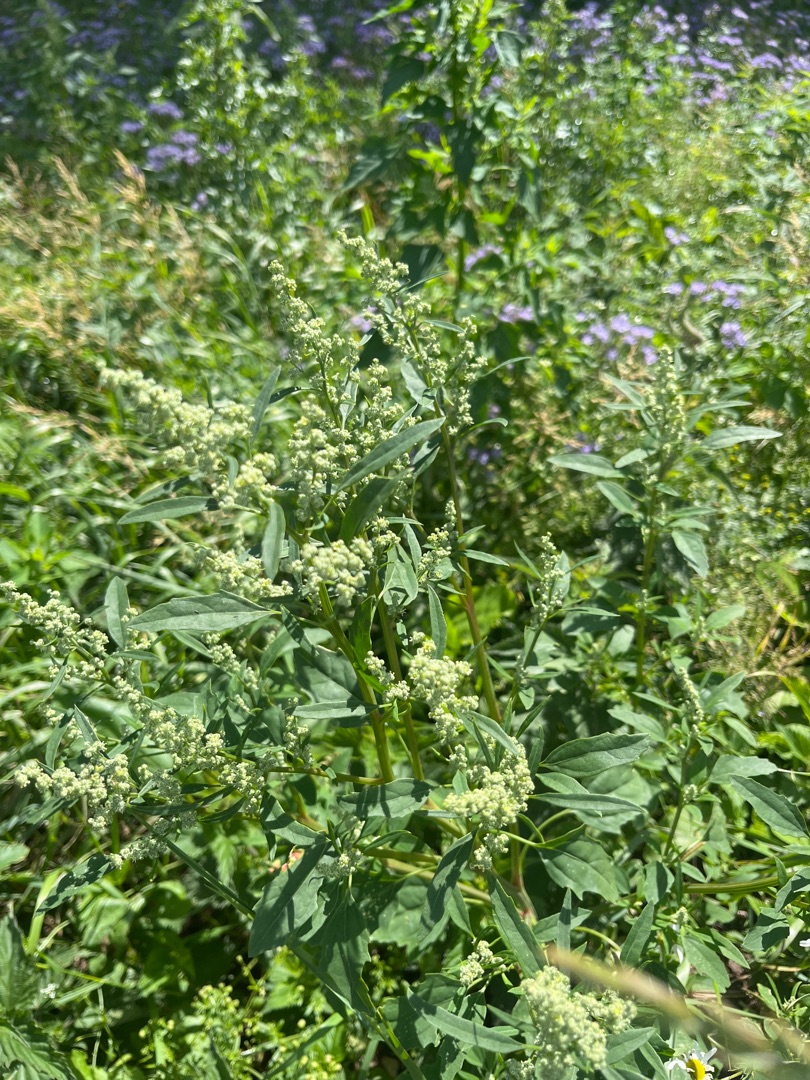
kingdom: Plantae
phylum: Tracheophyta
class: Magnoliopsida
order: Caryophyllales
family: Amaranthaceae
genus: Chenopodium
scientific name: Chenopodium album
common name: Hvidmelet gåsefod
